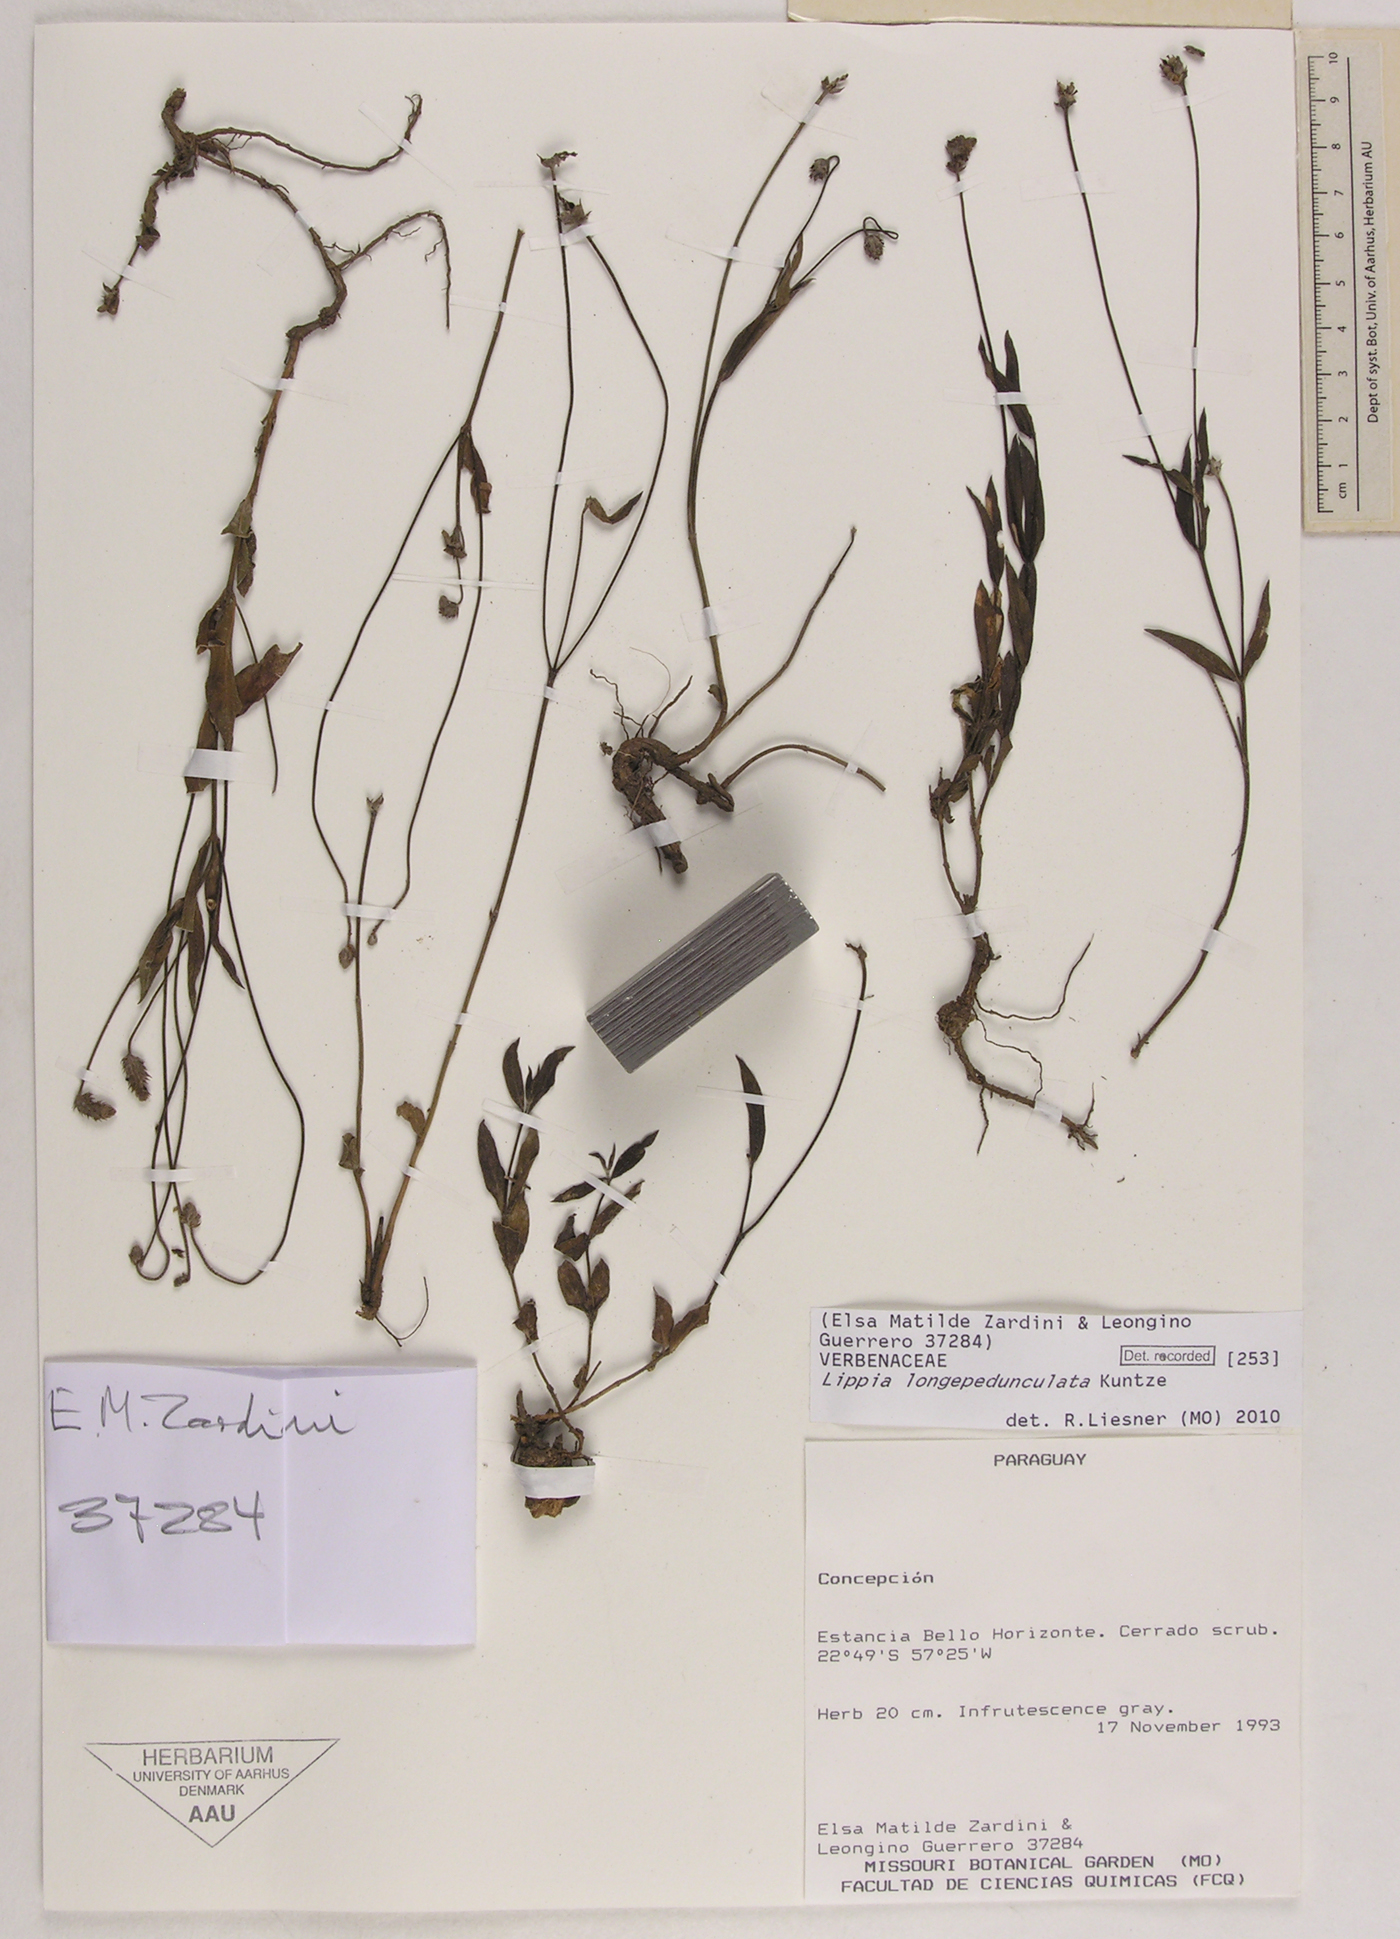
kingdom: Plantae
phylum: Tracheophyta
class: Magnoliopsida
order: Lamiales
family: Verbenaceae
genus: Lippia
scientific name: Lippia longepedunculata
